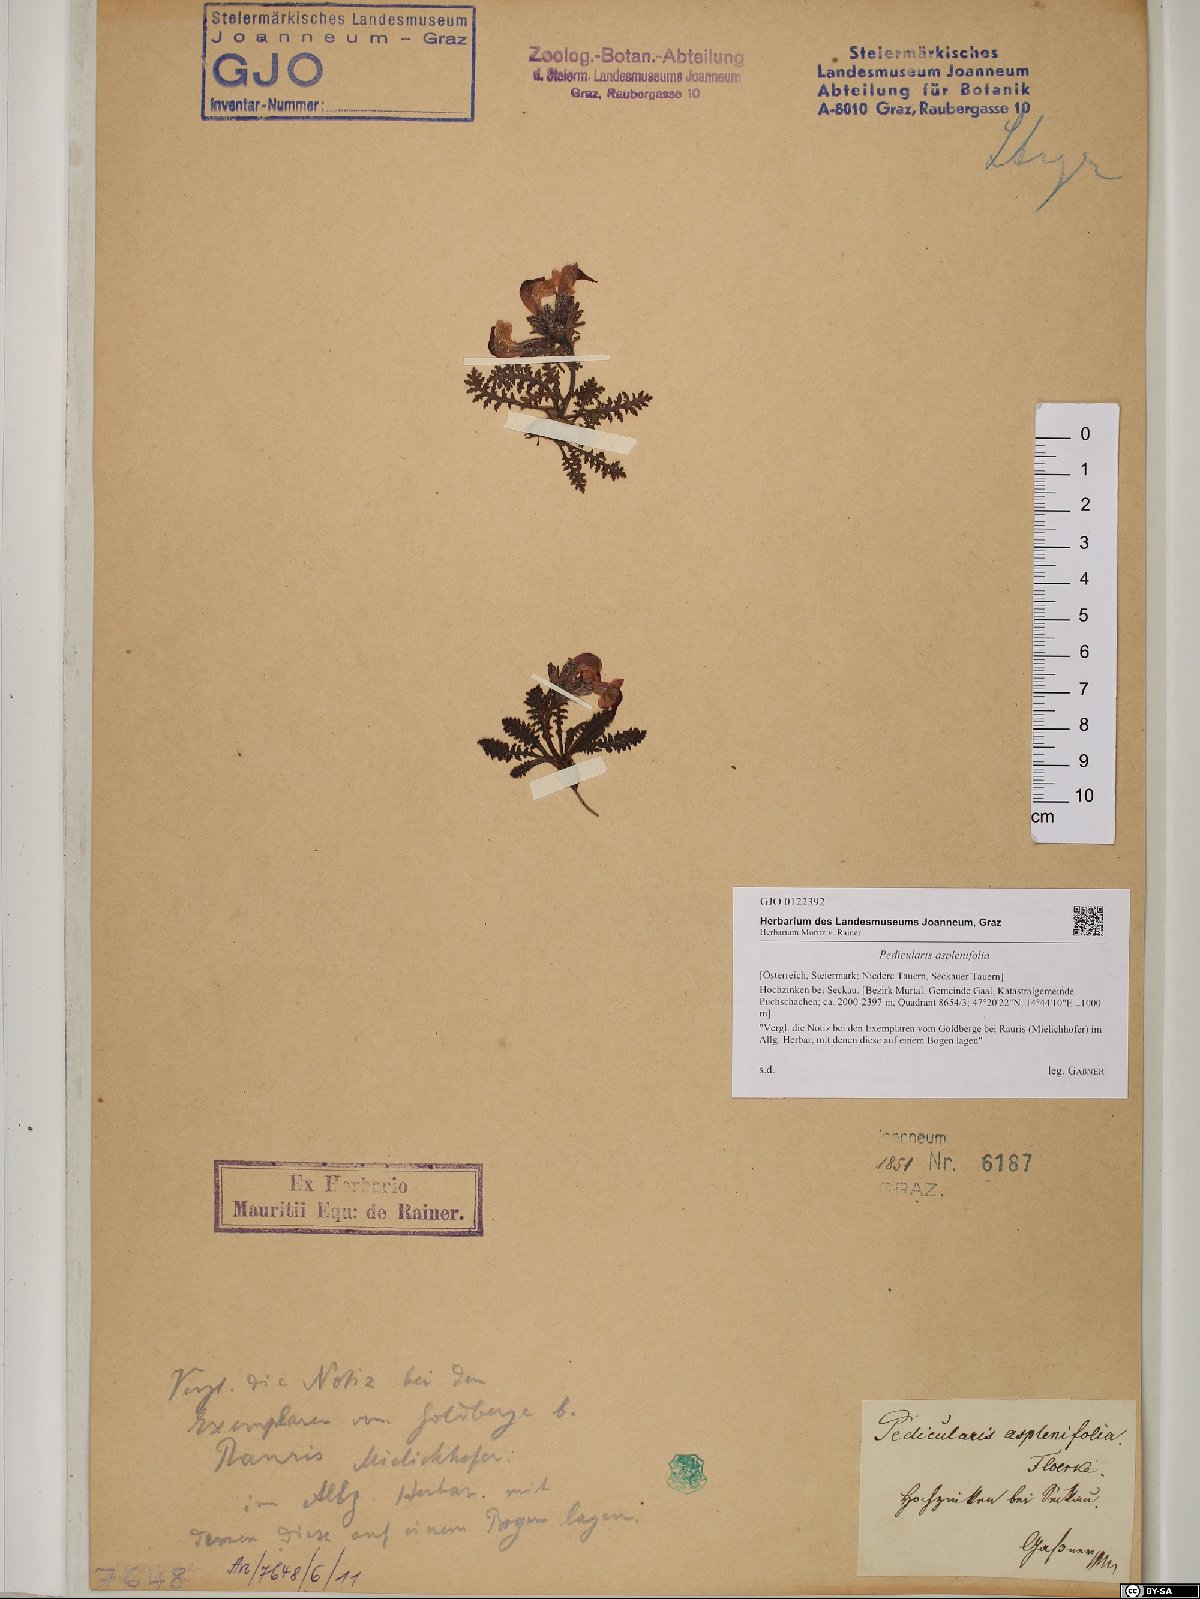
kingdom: Plantae
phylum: Tracheophyta
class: Magnoliopsida
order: Lamiales
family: Orobanchaceae
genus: Pedicularis
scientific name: Pedicularis asplenifolia
